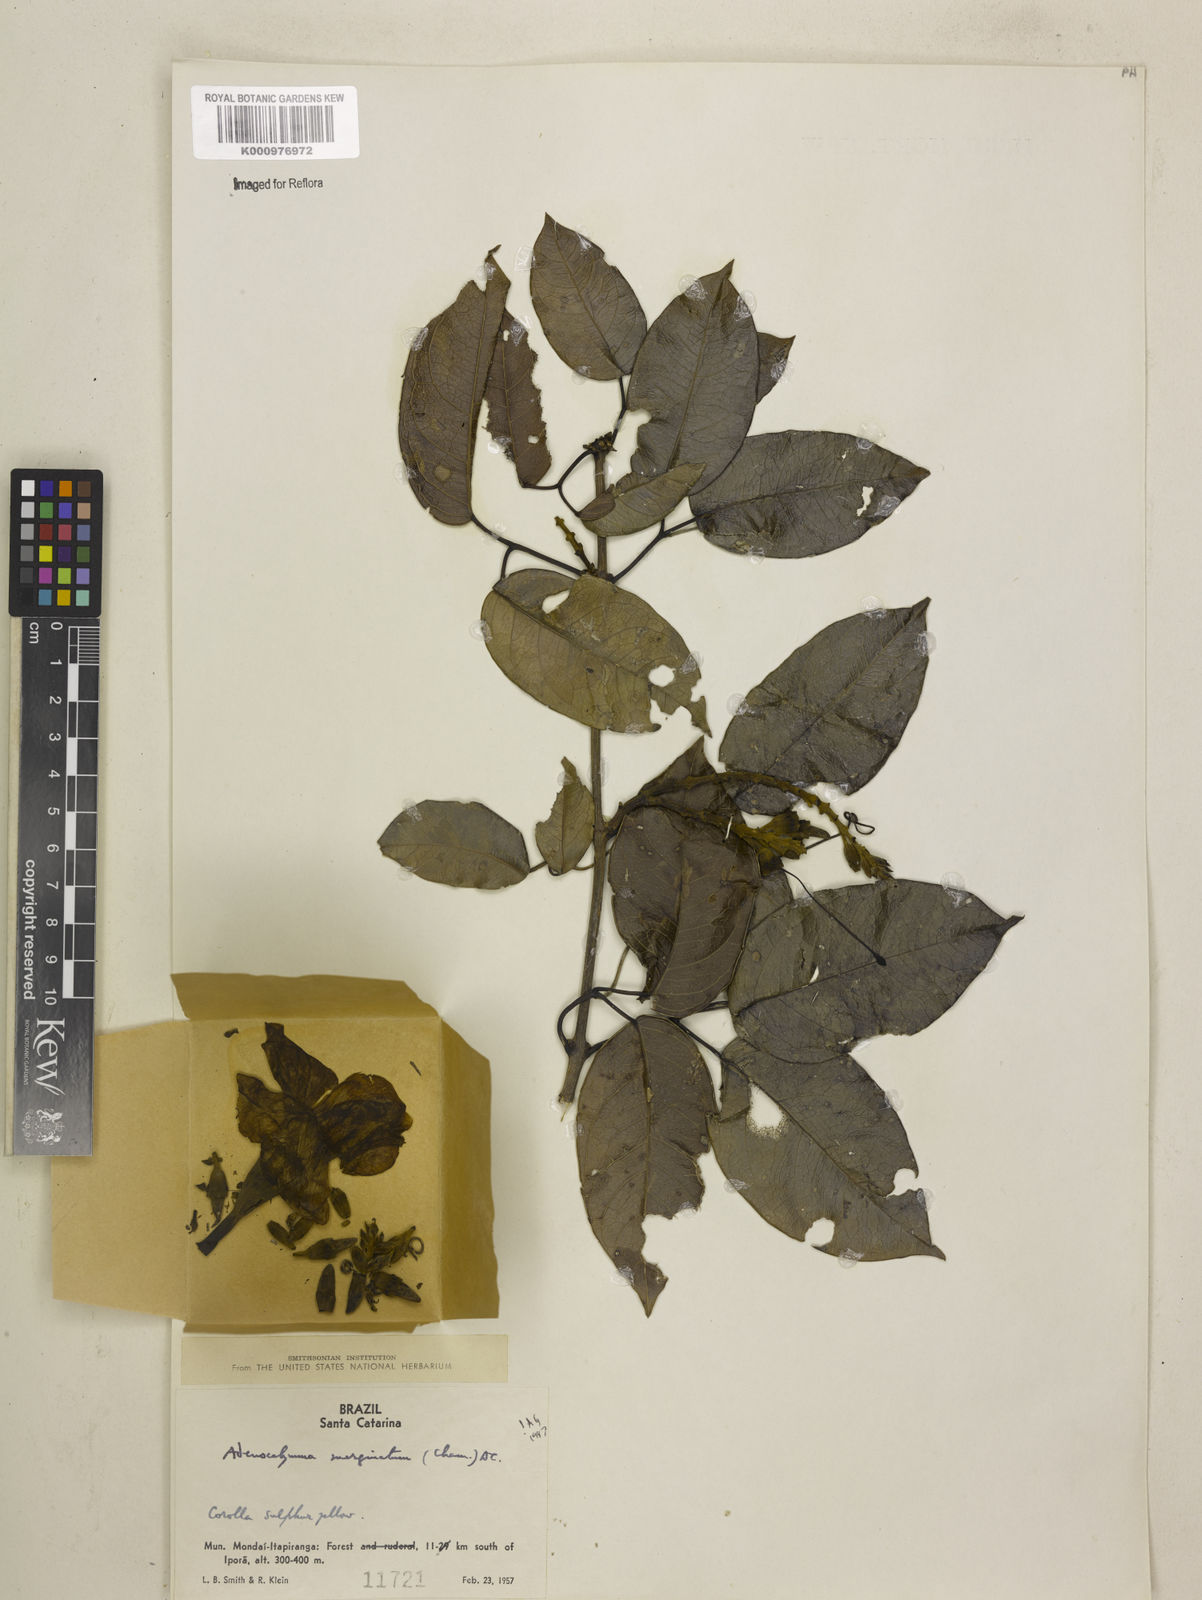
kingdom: Plantae
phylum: Tracheophyta
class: Magnoliopsida
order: Lamiales
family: Bignoniaceae
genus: Adenocalymma
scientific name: Adenocalymma marginatum
